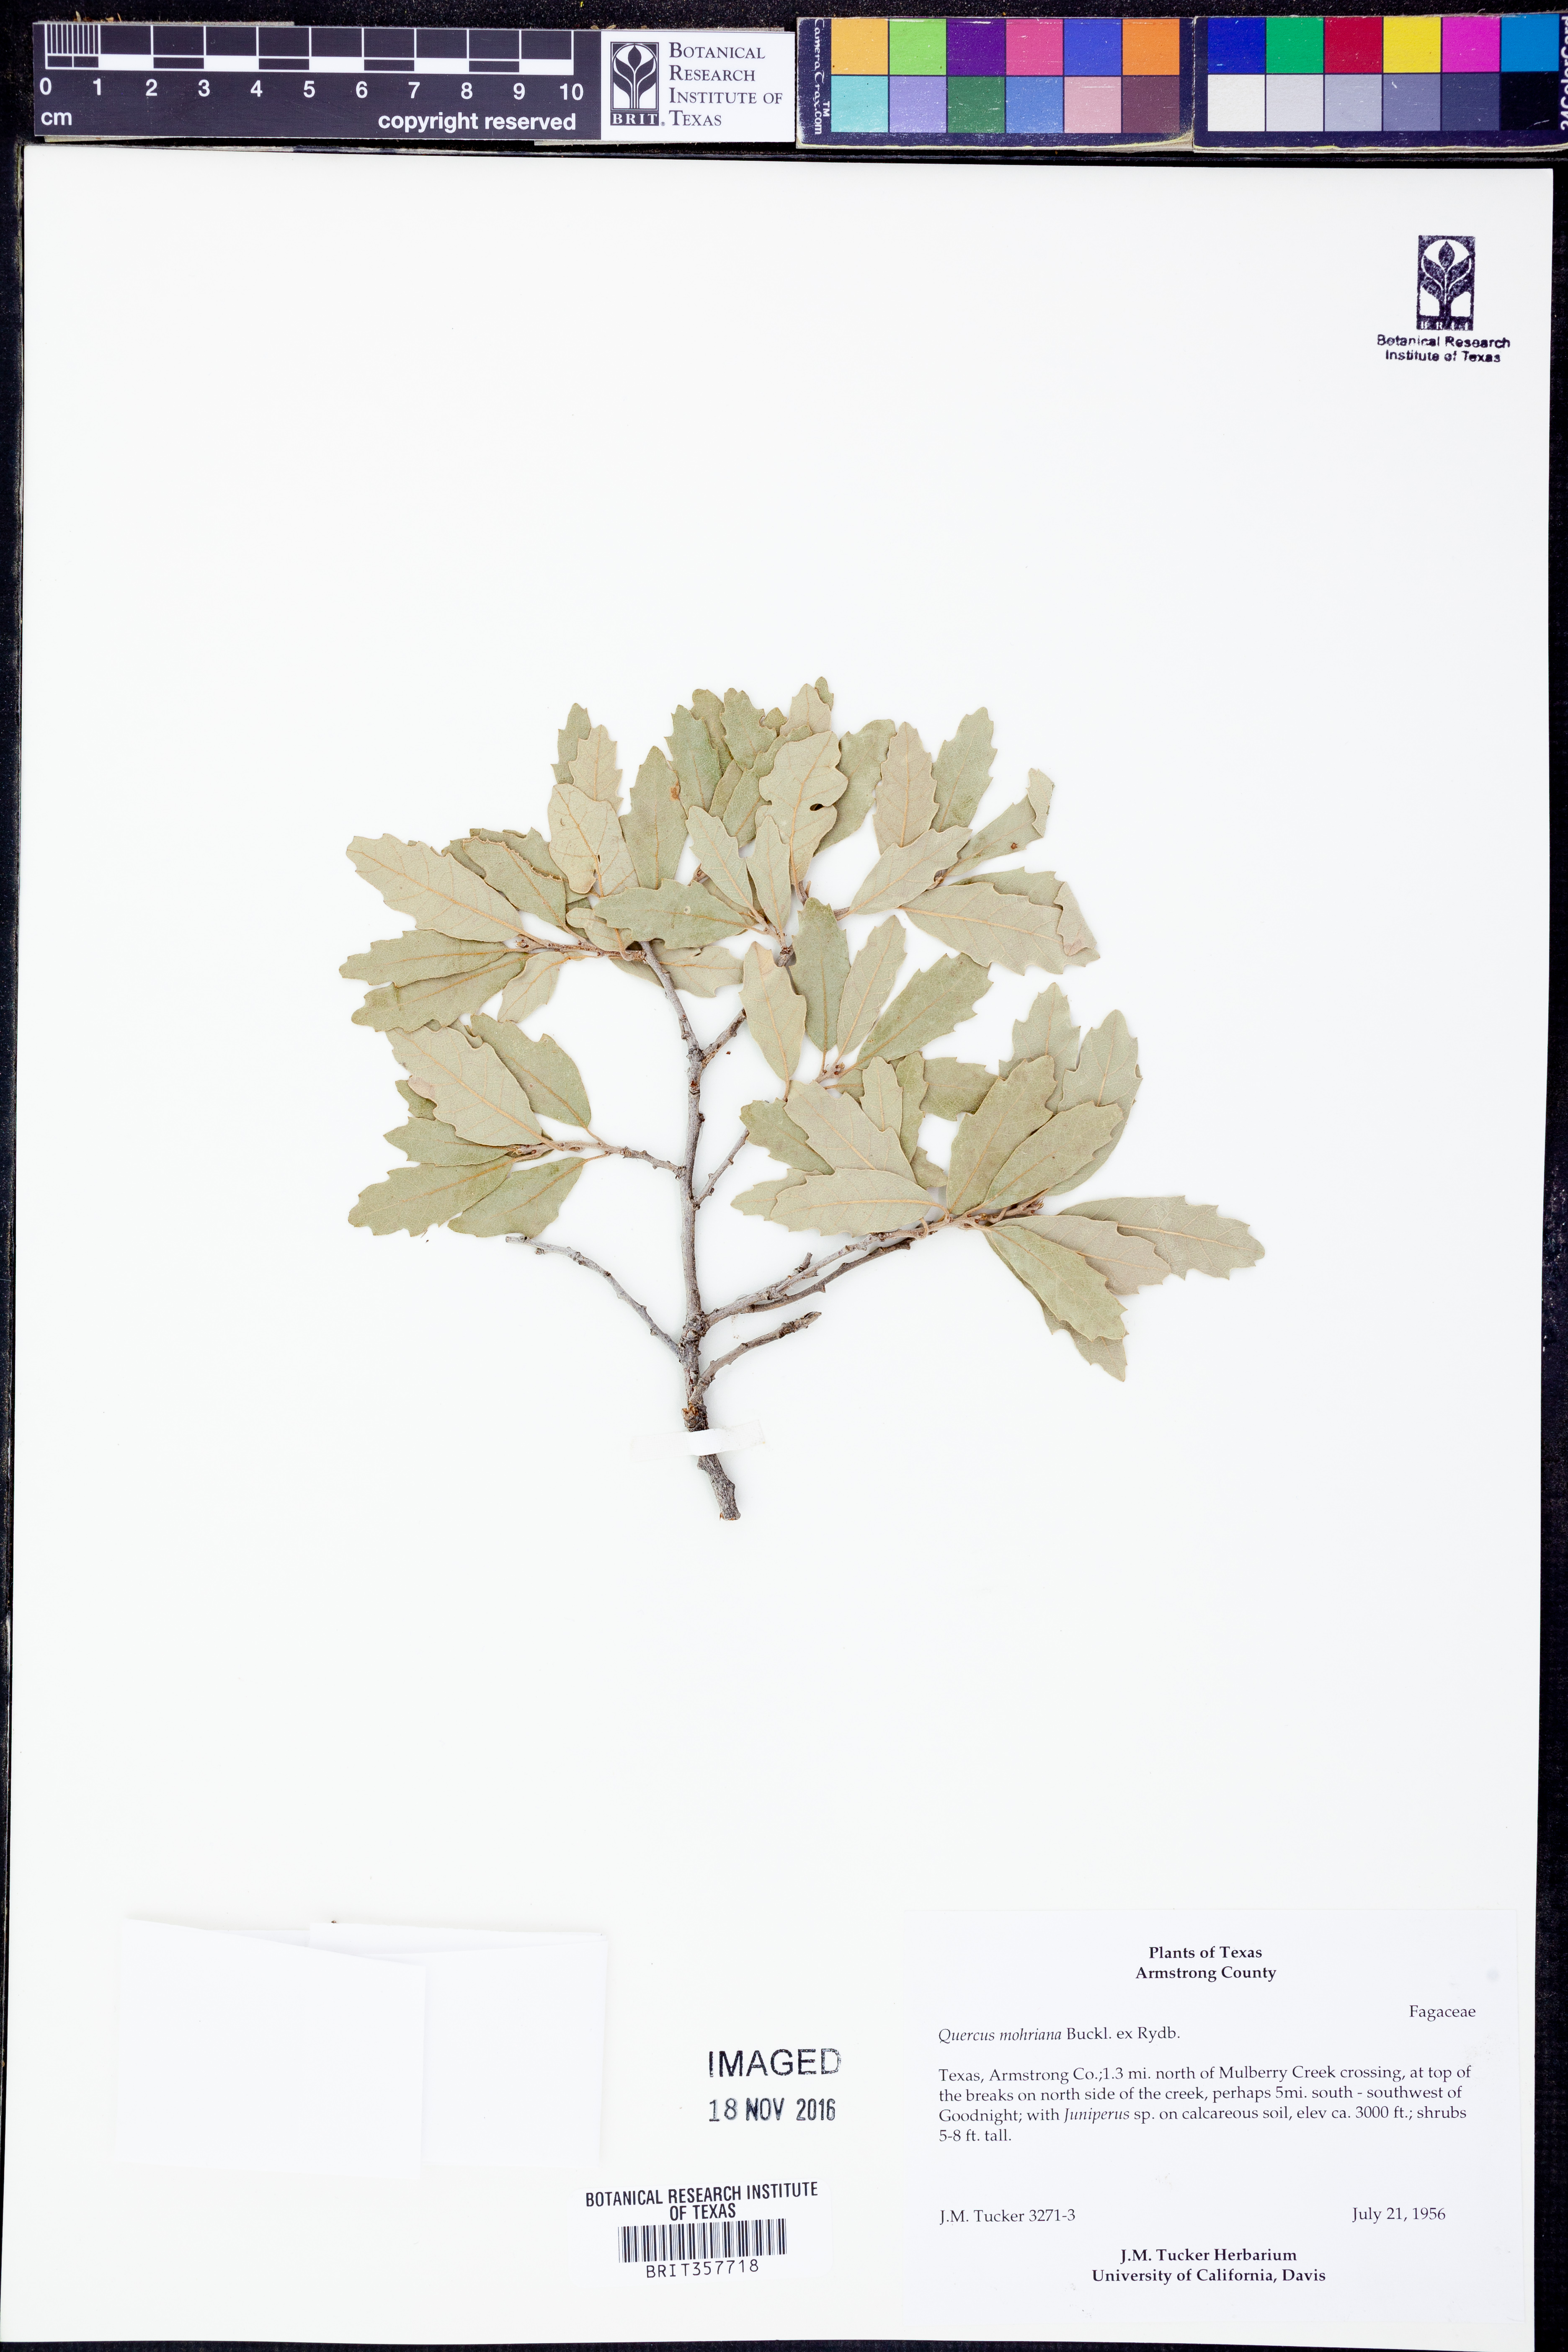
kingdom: Plantae
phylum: Tracheophyta
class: Magnoliopsida
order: Fagales
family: Fagaceae
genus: Quercus
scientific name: Quercus mohriana
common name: Mohr oak
